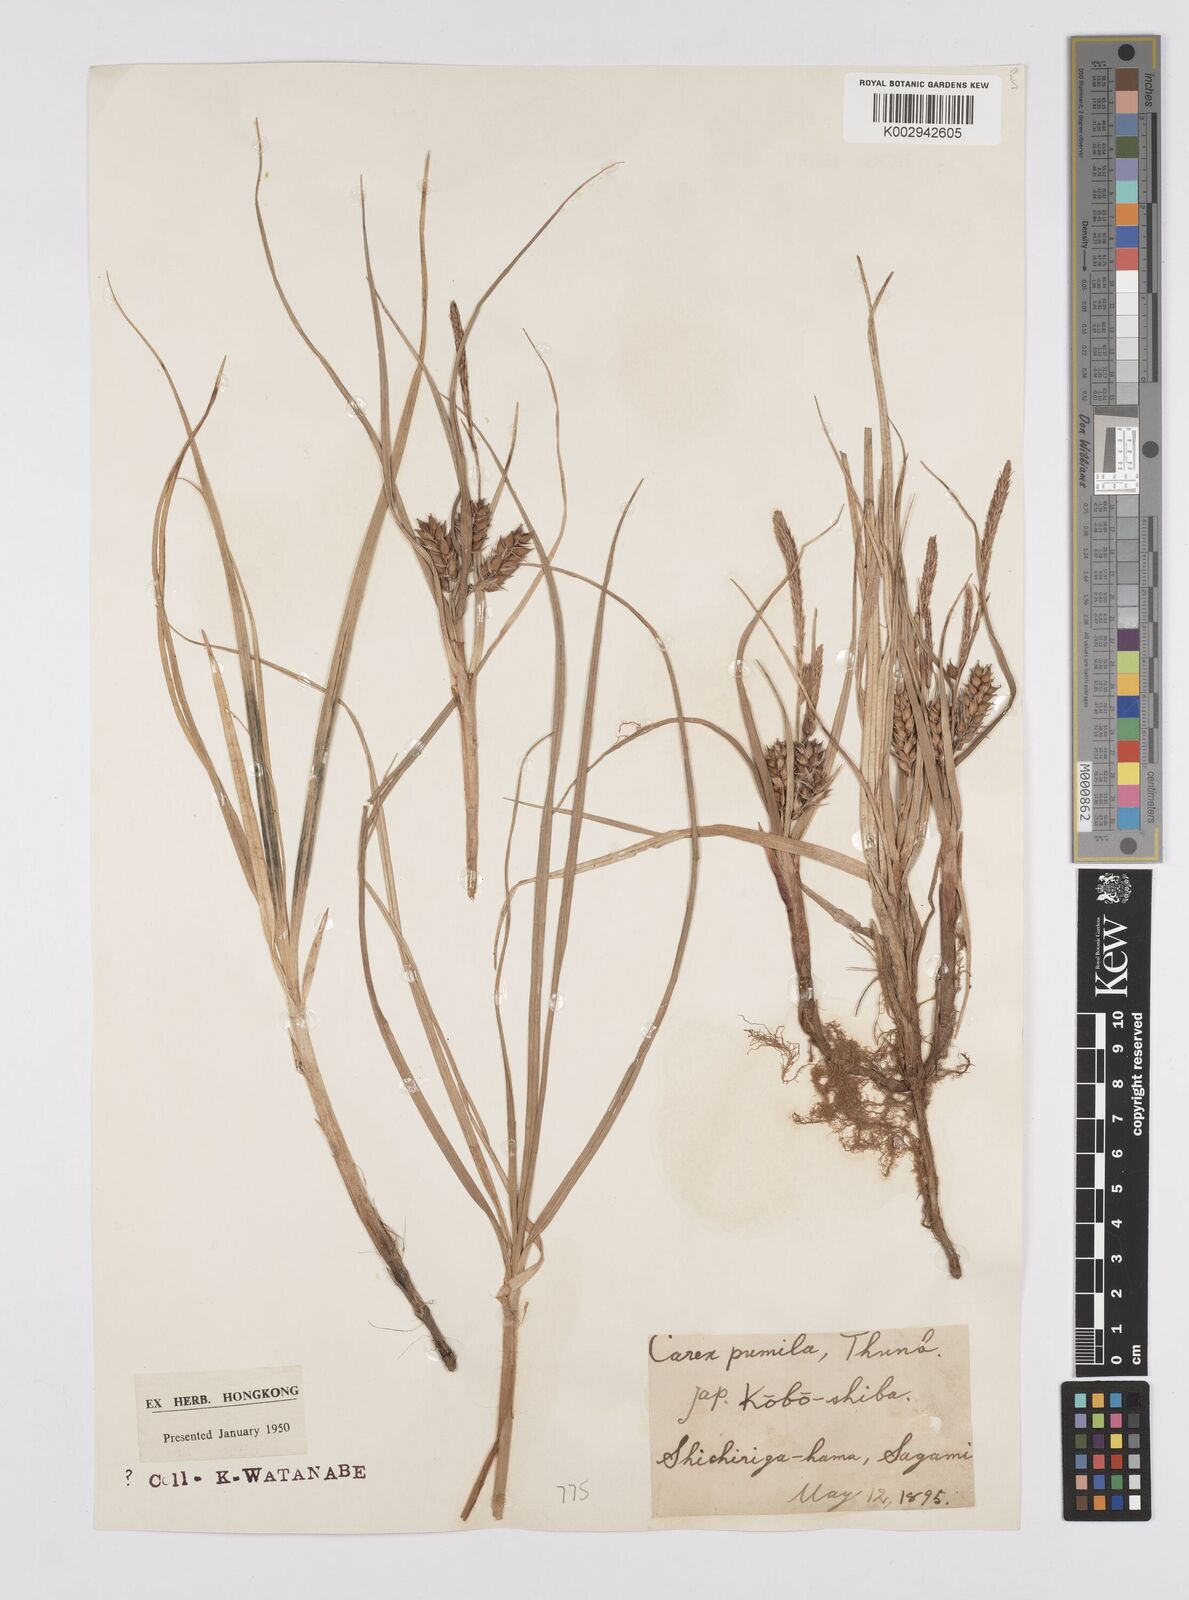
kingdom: Plantae
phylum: Tracheophyta
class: Liliopsida
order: Poales
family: Cyperaceae
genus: Carex
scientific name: Carex pumila
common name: Dwarf sedge
